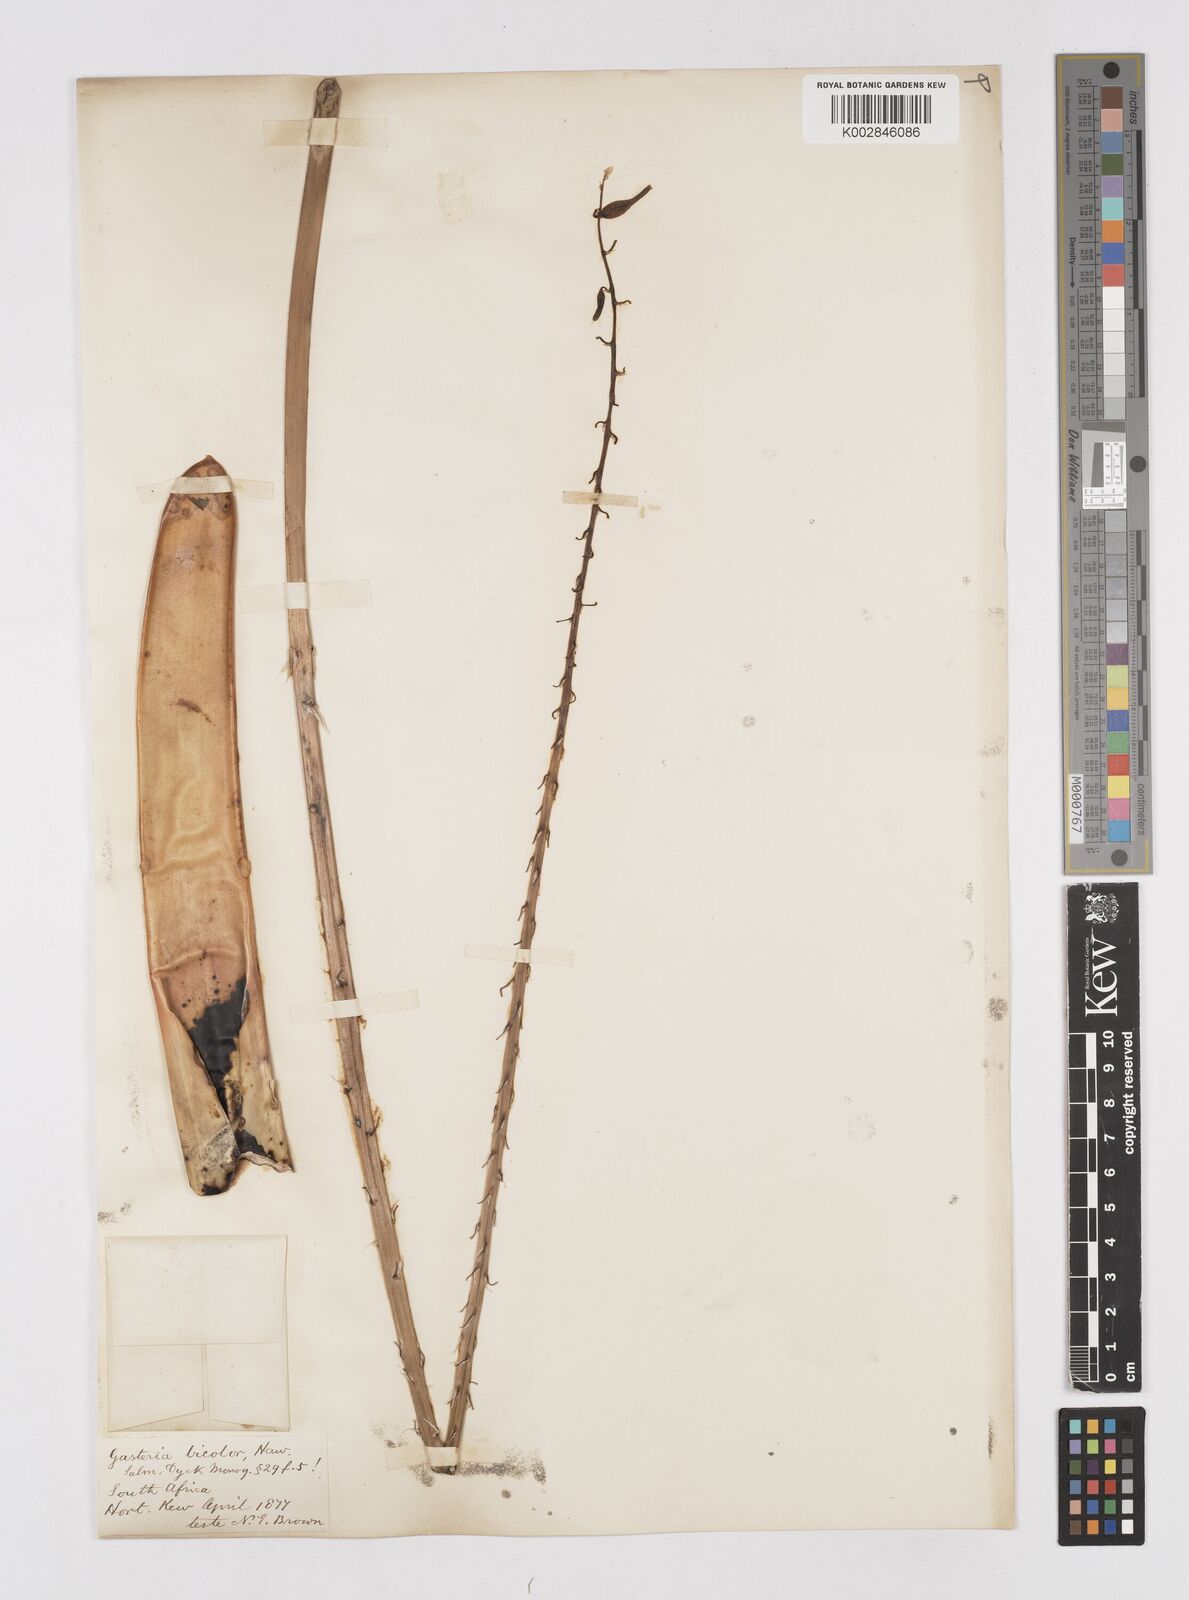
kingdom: Plantae
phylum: Tracheophyta
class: Liliopsida
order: Asparagales
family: Asphodelaceae
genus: Gasteria
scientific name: Gasteria obliqua
